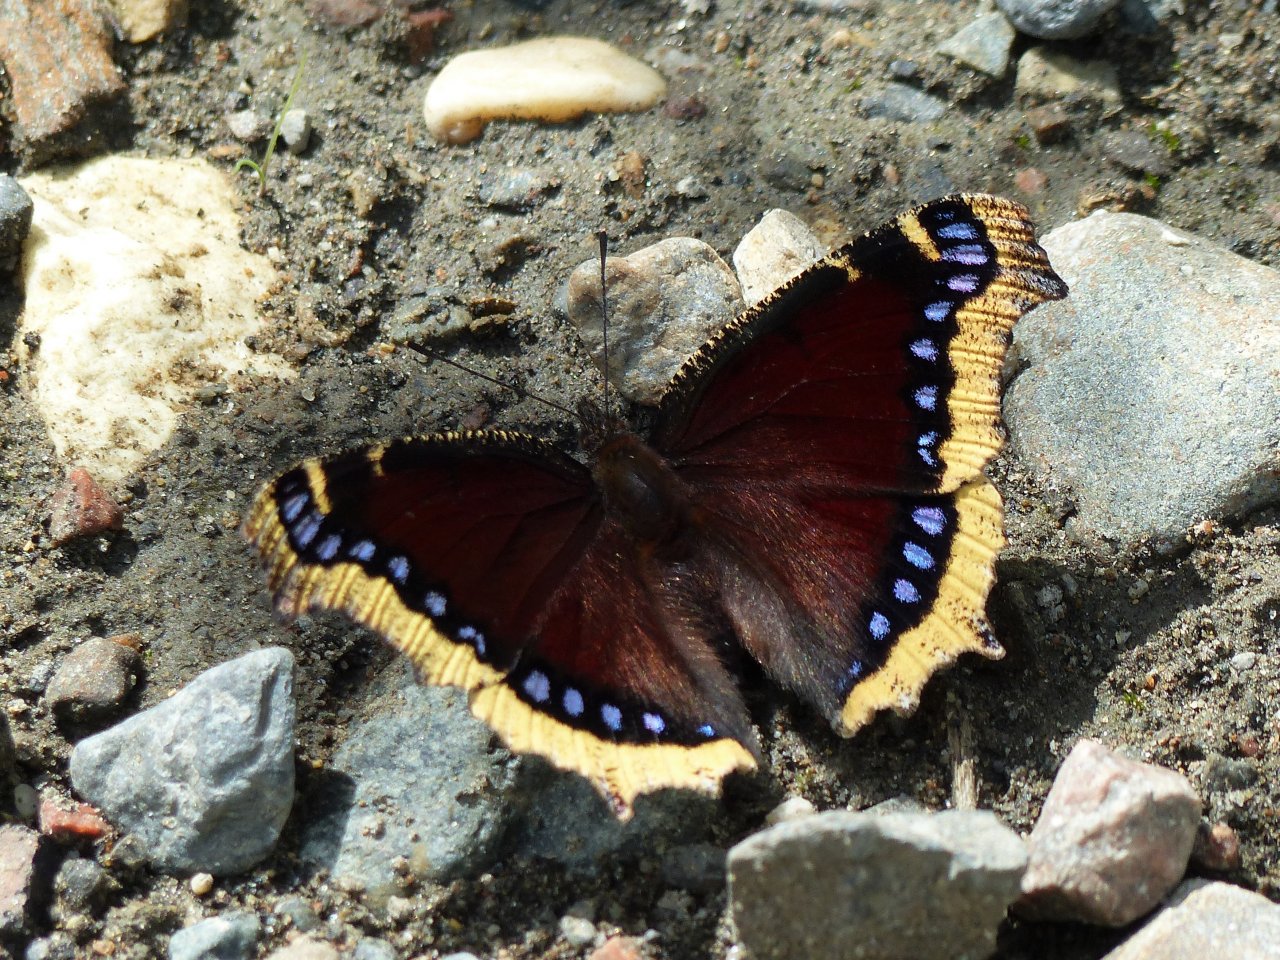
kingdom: Animalia
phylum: Arthropoda
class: Insecta
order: Lepidoptera
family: Nymphalidae
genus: Nymphalis
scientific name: Nymphalis antiopa
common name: Mourning Cloak
